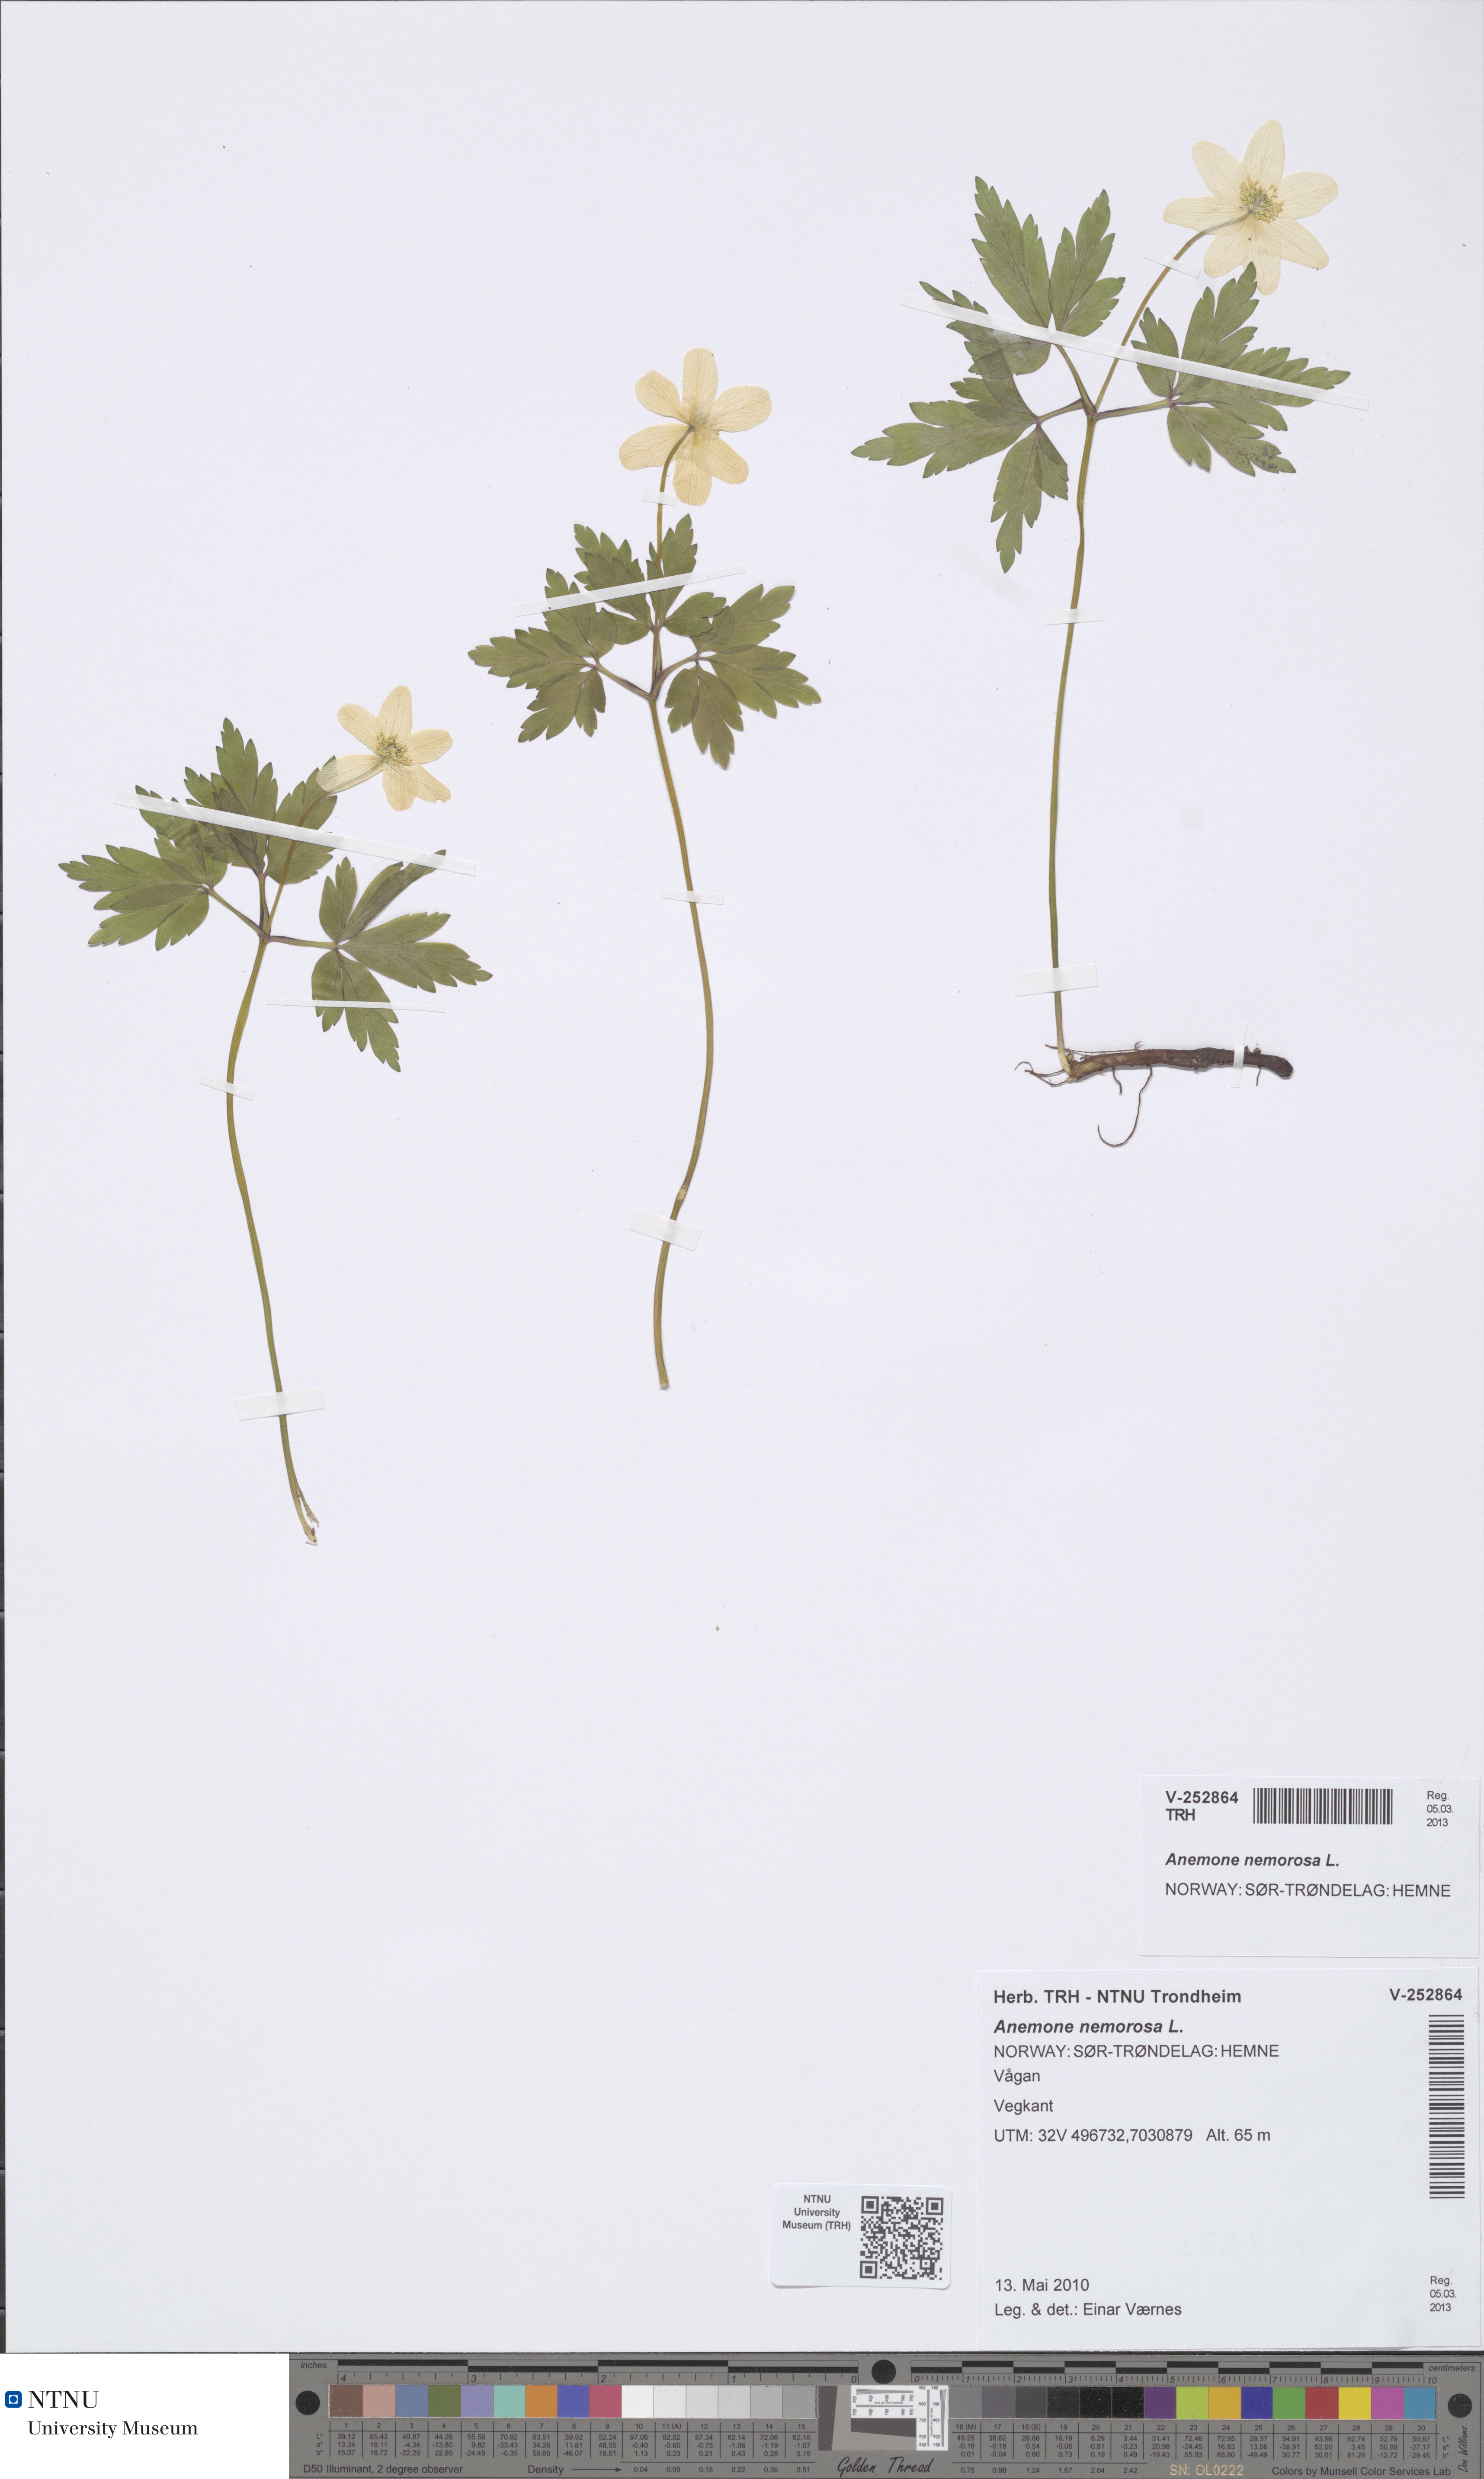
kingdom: Plantae
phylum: Tracheophyta
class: Magnoliopsida
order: Ranunculales
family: Ranunculaceae
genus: Anemone
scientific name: Anemone nemorosa
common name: Wood anemone
